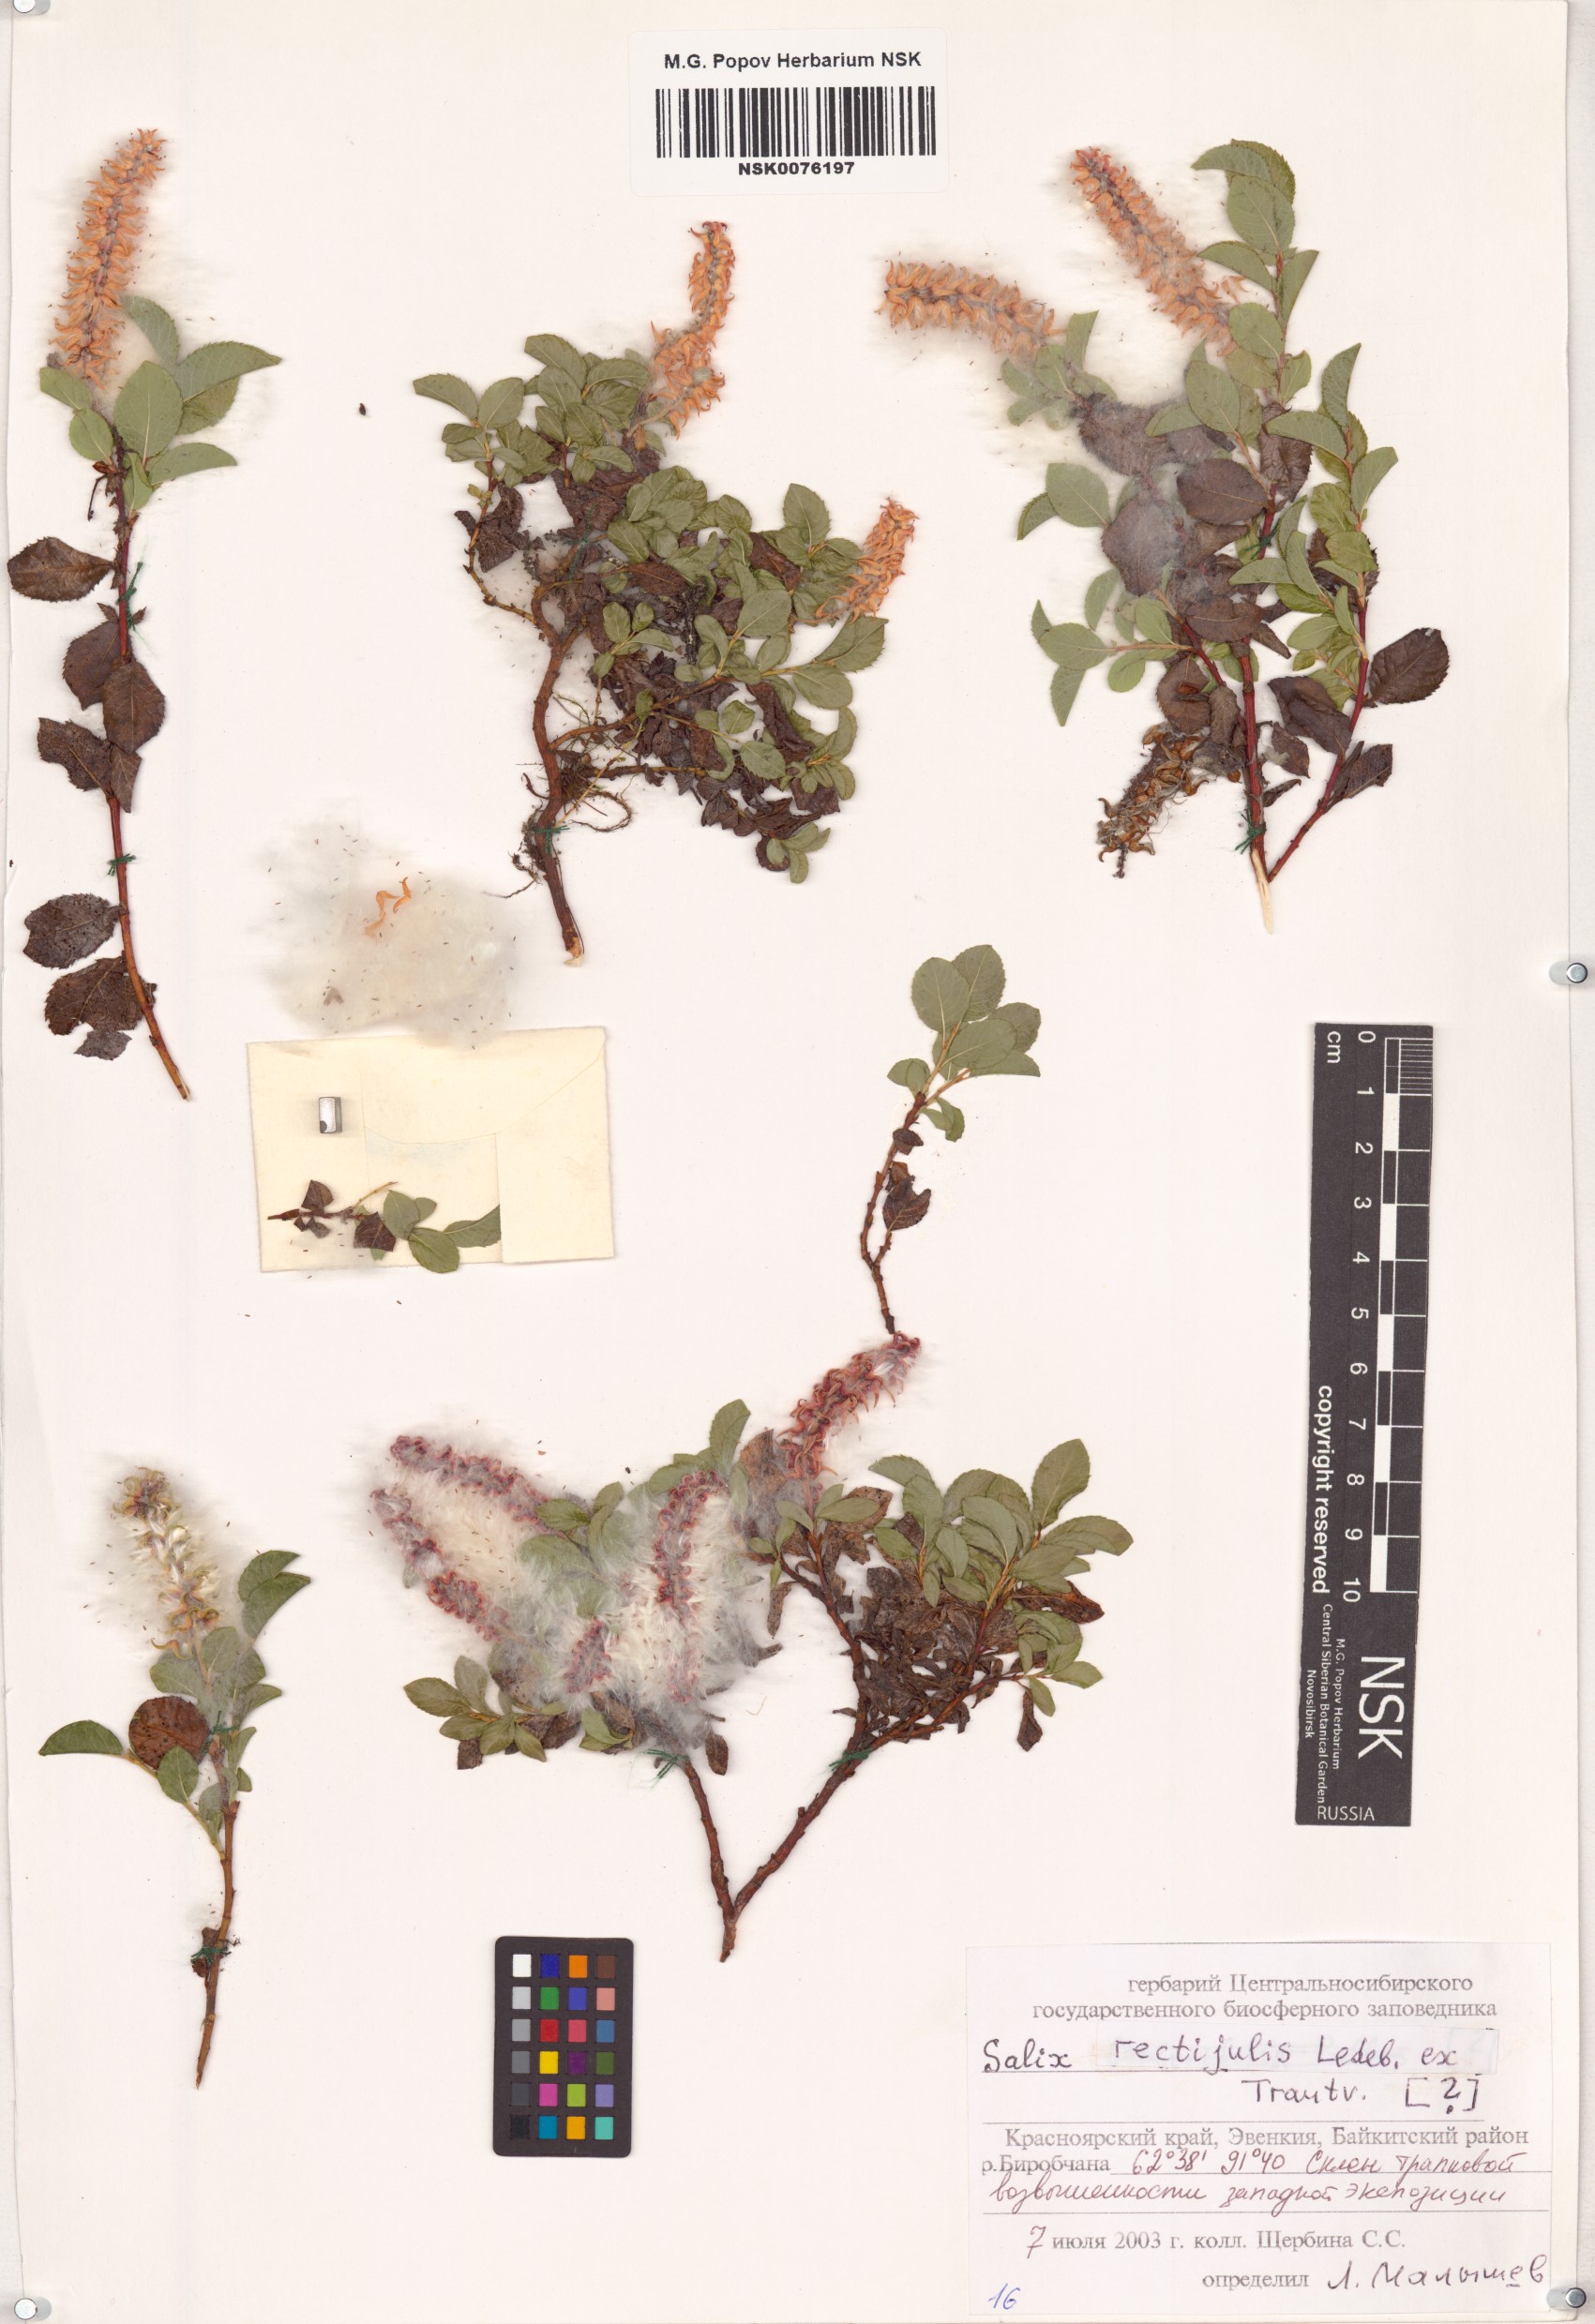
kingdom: Plantae
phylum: Tracheophyta
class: Magnoliopsida
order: Malpighiales
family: Salicaceae
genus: Salix
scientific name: Salix rectijulis
